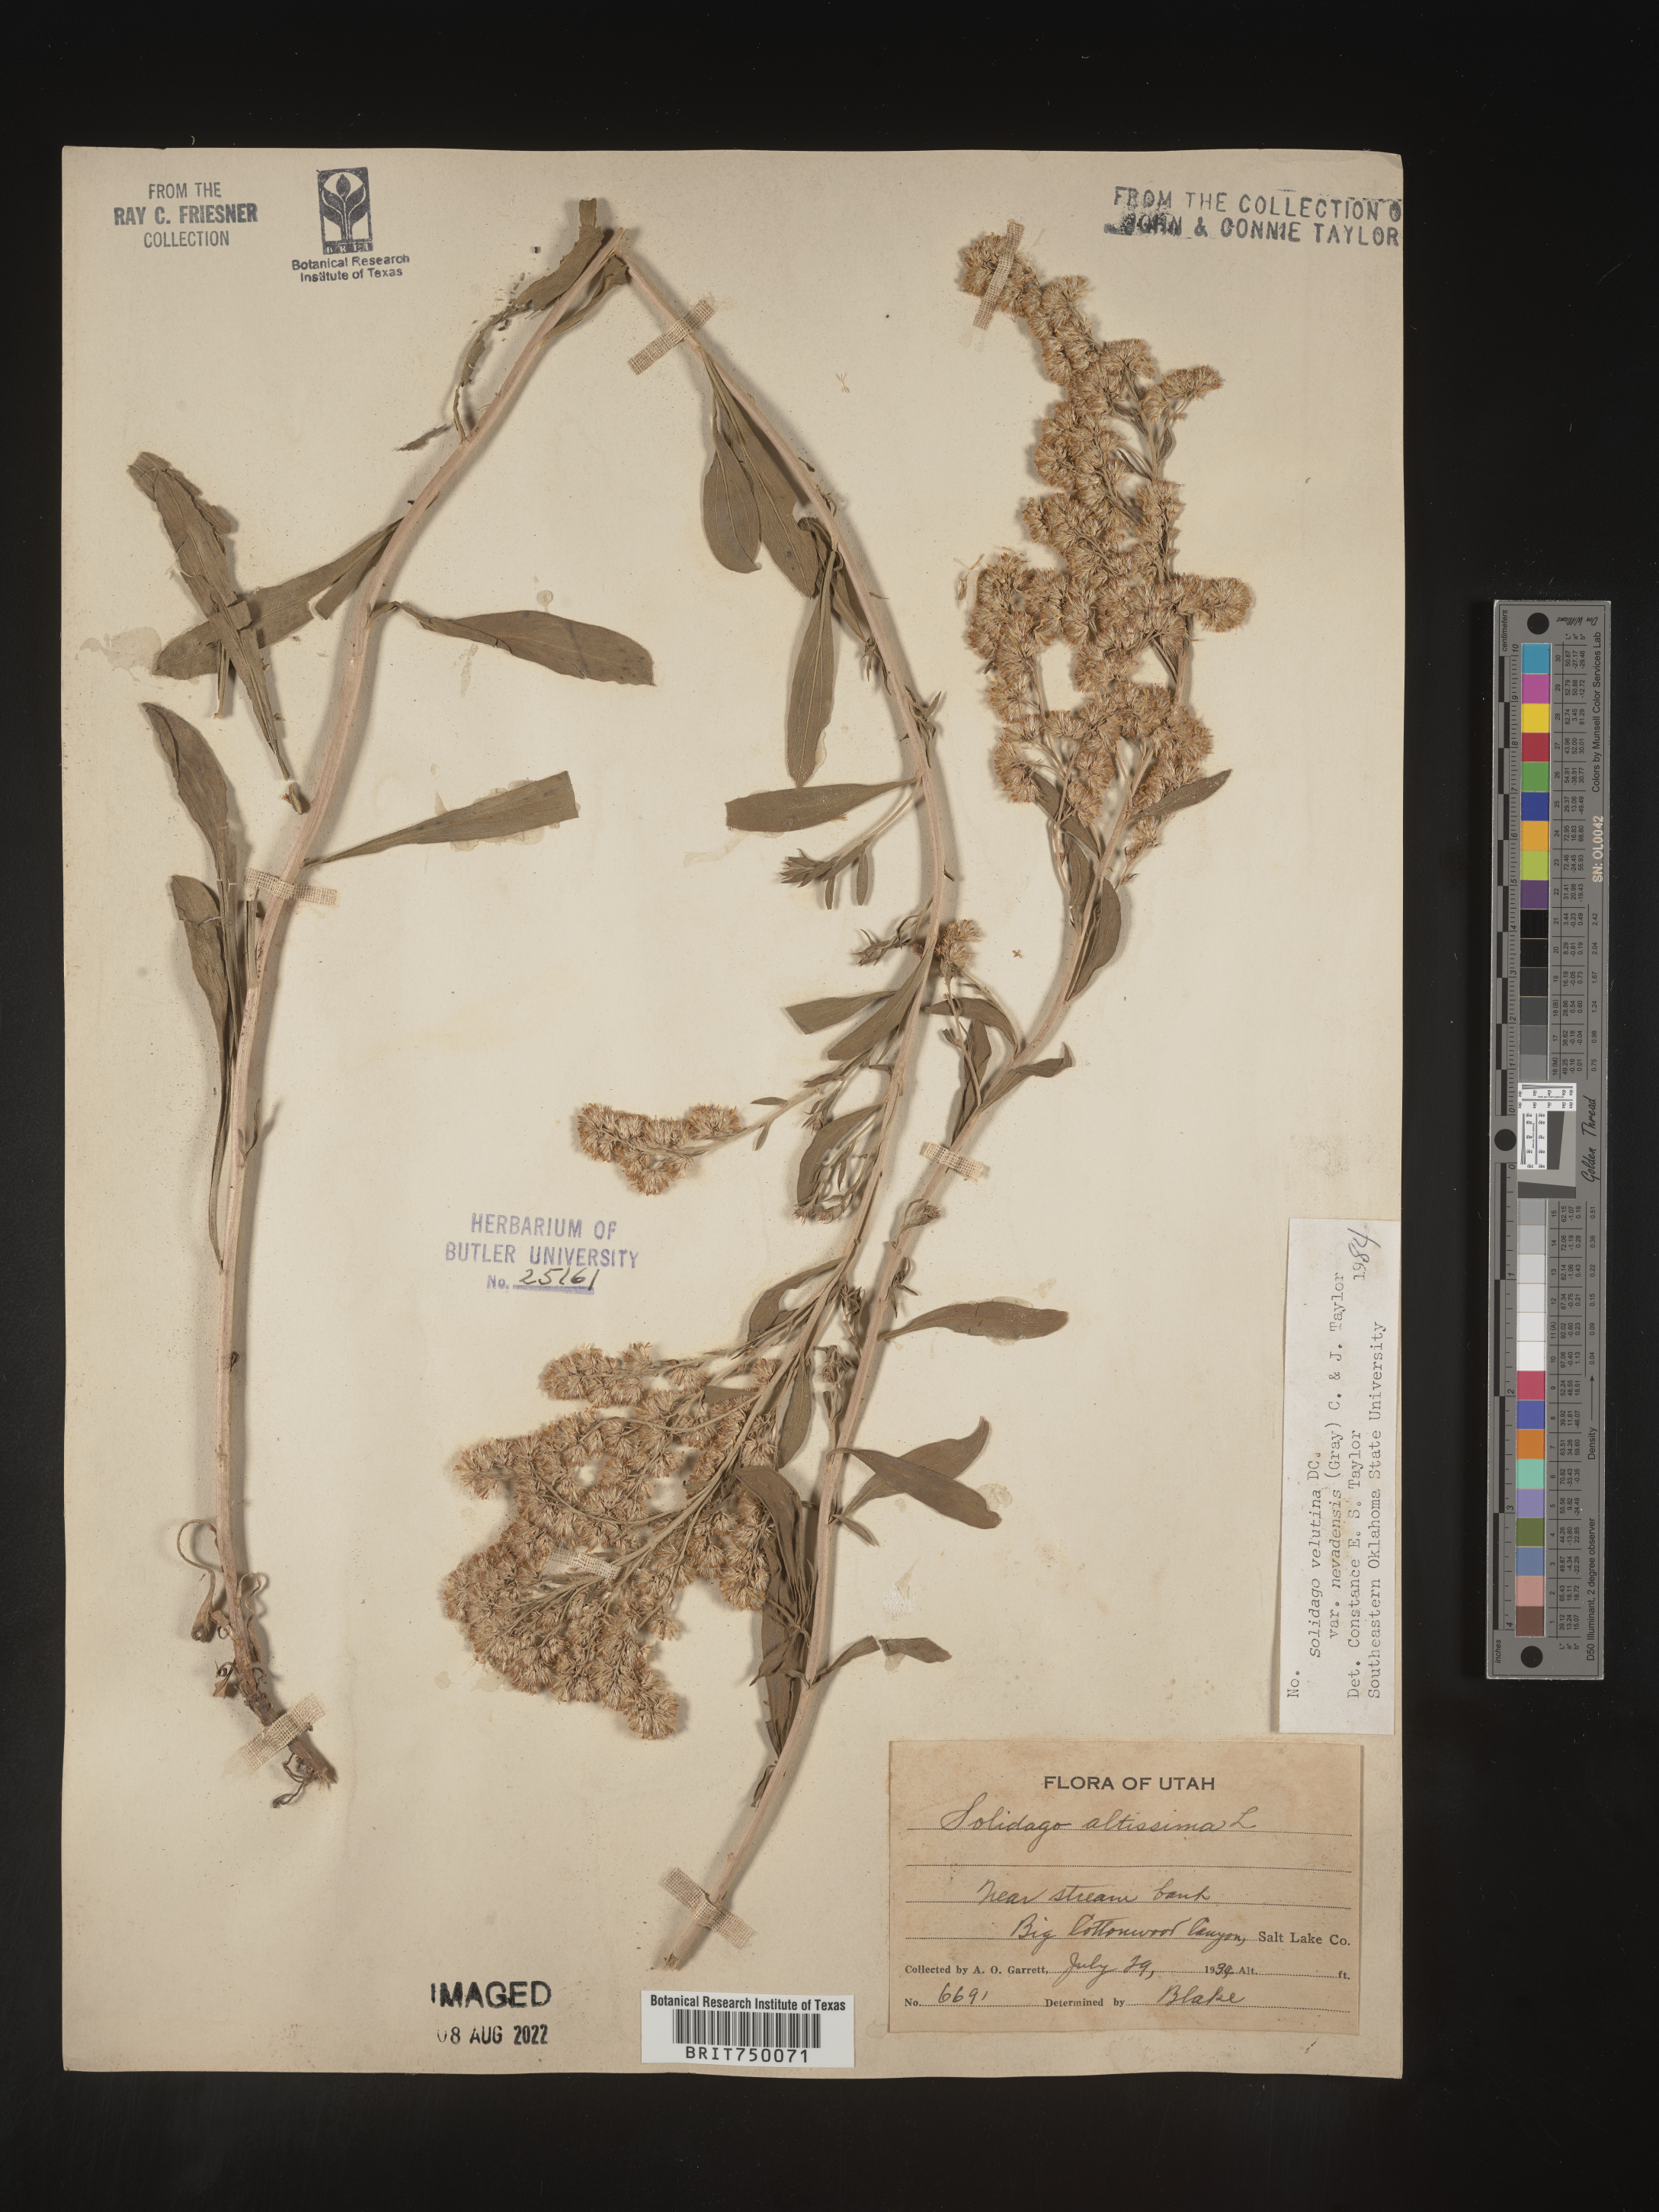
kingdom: Plantae
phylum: Tracheophyta
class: Magnoliopsida
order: Asterales
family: Asteraceae
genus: Solidago
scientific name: Solidago garrettii
